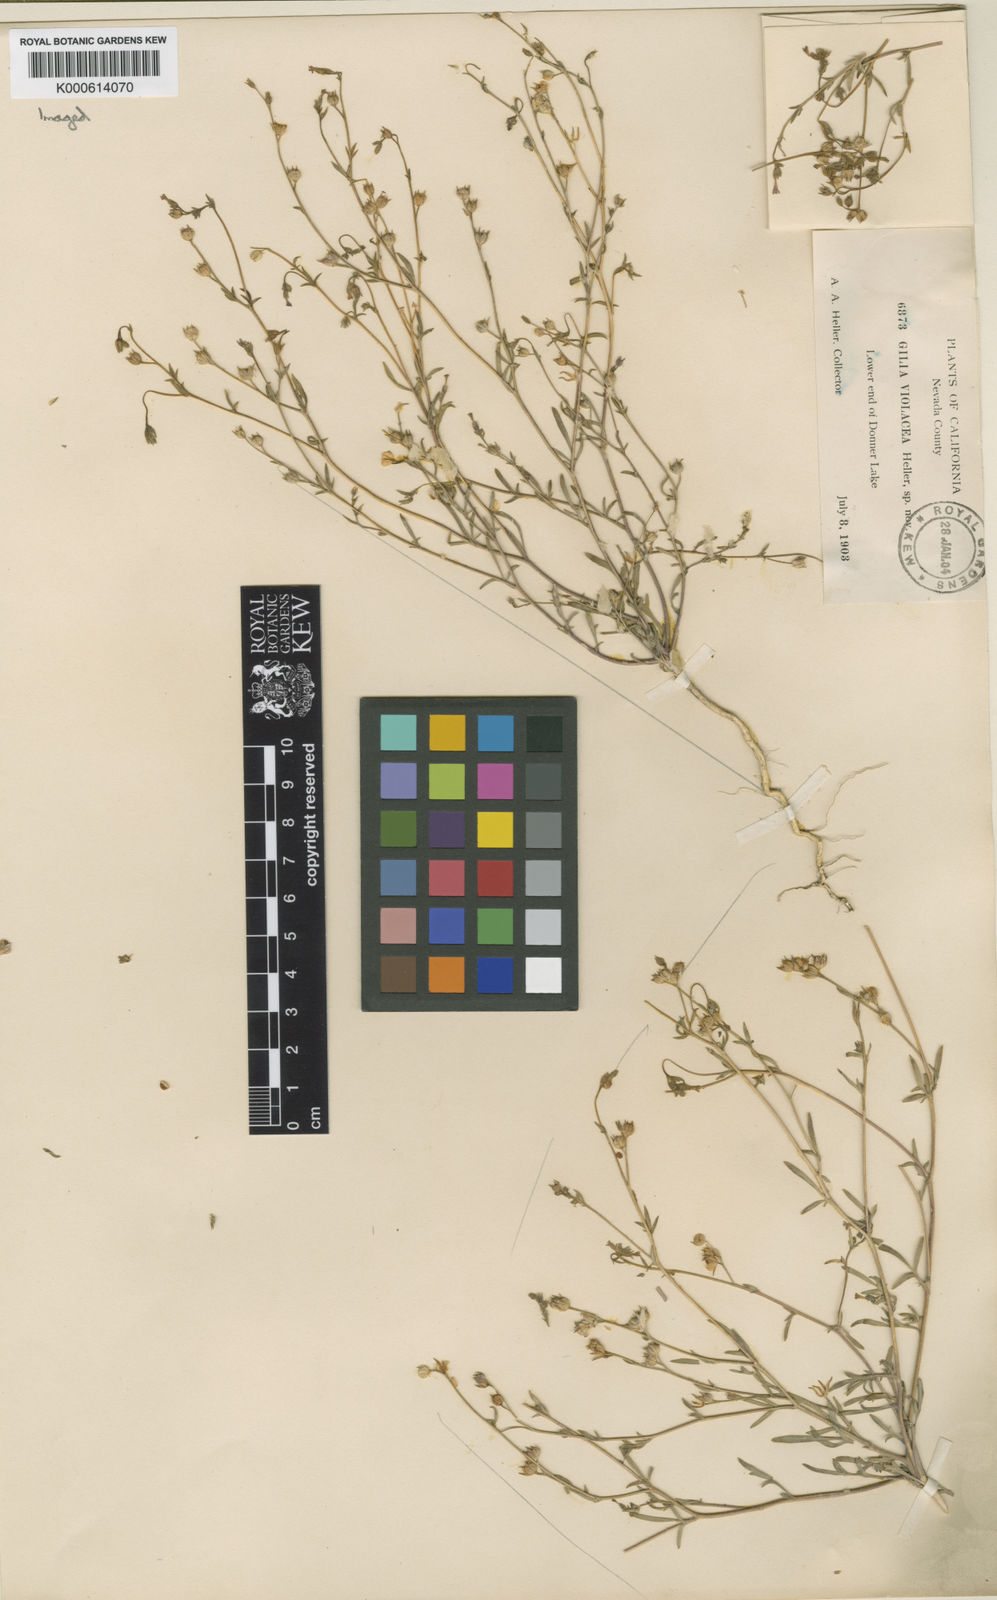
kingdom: Plantae
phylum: Tracheophyta
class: Magnoliopsida
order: Ericales
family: Polemoniaceae
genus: Allophyllum
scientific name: Allophyllum gilioides
